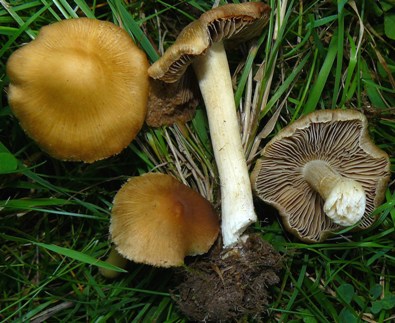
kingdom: Fungi
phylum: Basidiomycota
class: Agaricomycetes
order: Agaricales
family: Inocybaceae
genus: Inosperma
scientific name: Inosperma
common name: strågul trævlhat
